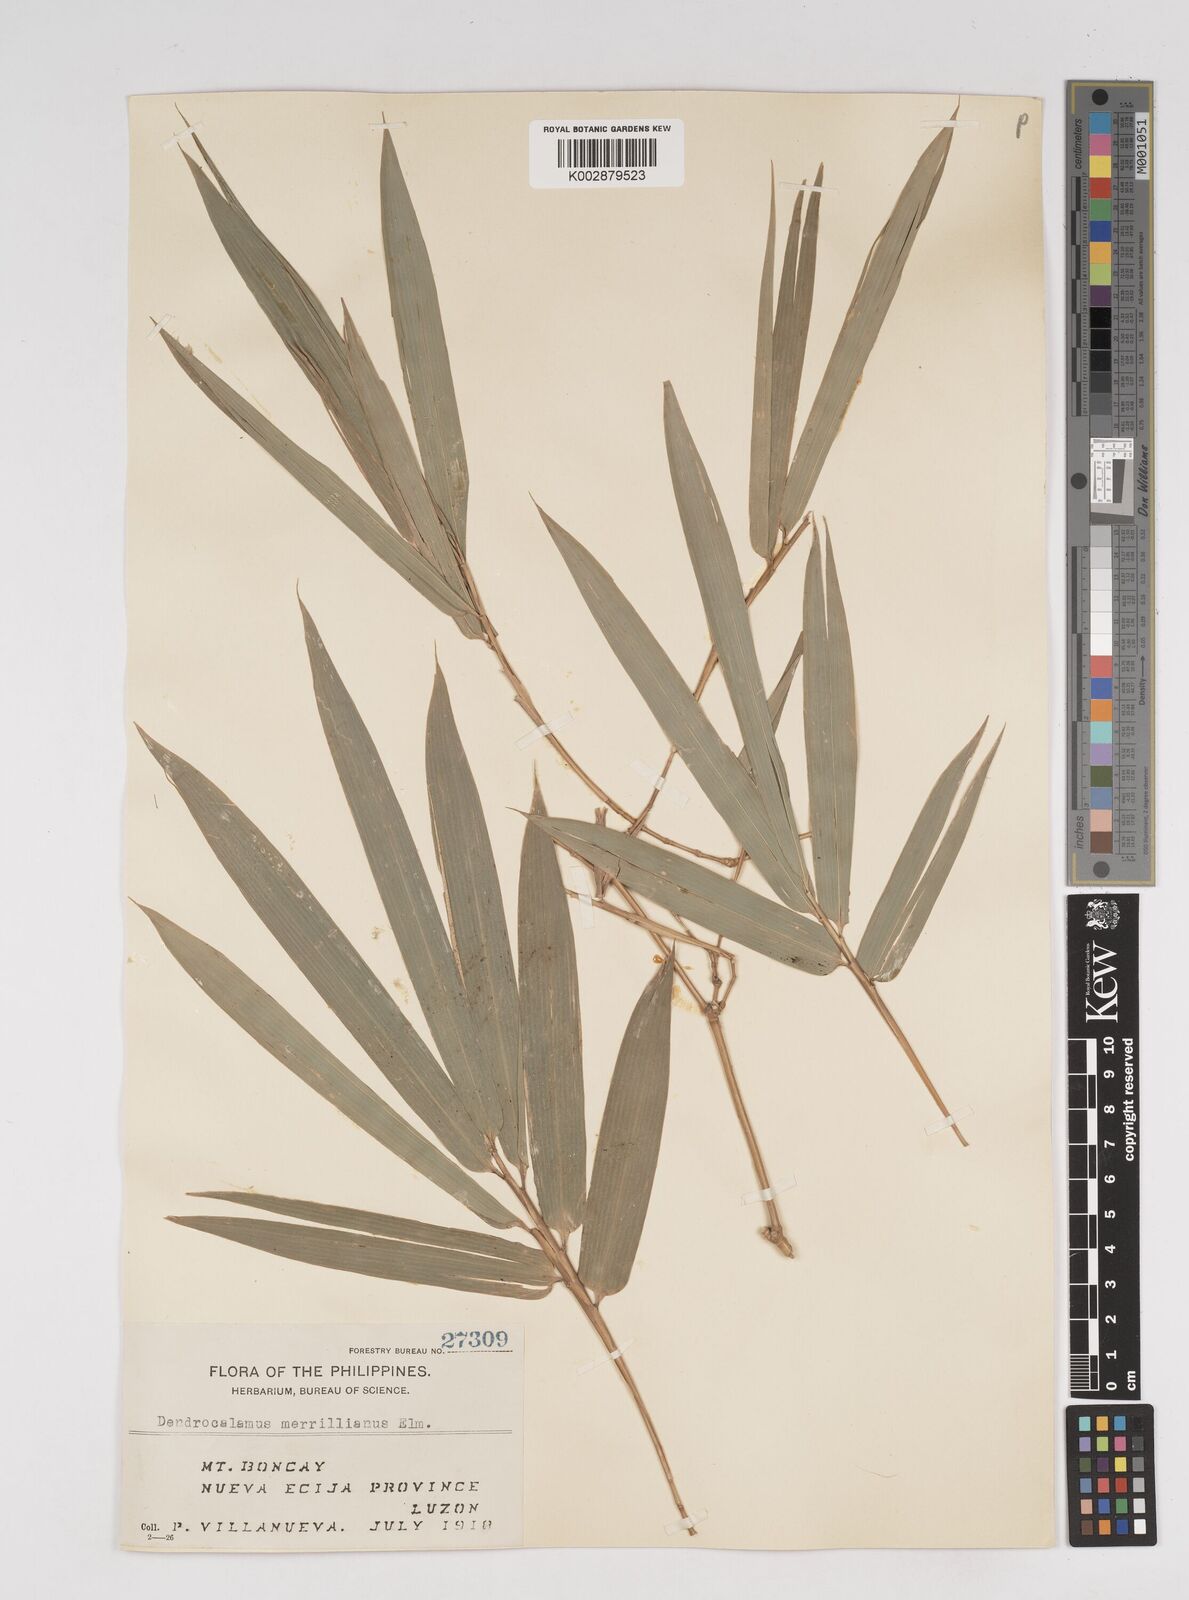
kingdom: Plantae
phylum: Tracheophyta
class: Liliopsida
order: Poales
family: Poaceae
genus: Dendrocalamus
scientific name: Dendrocalamus merrillianus
